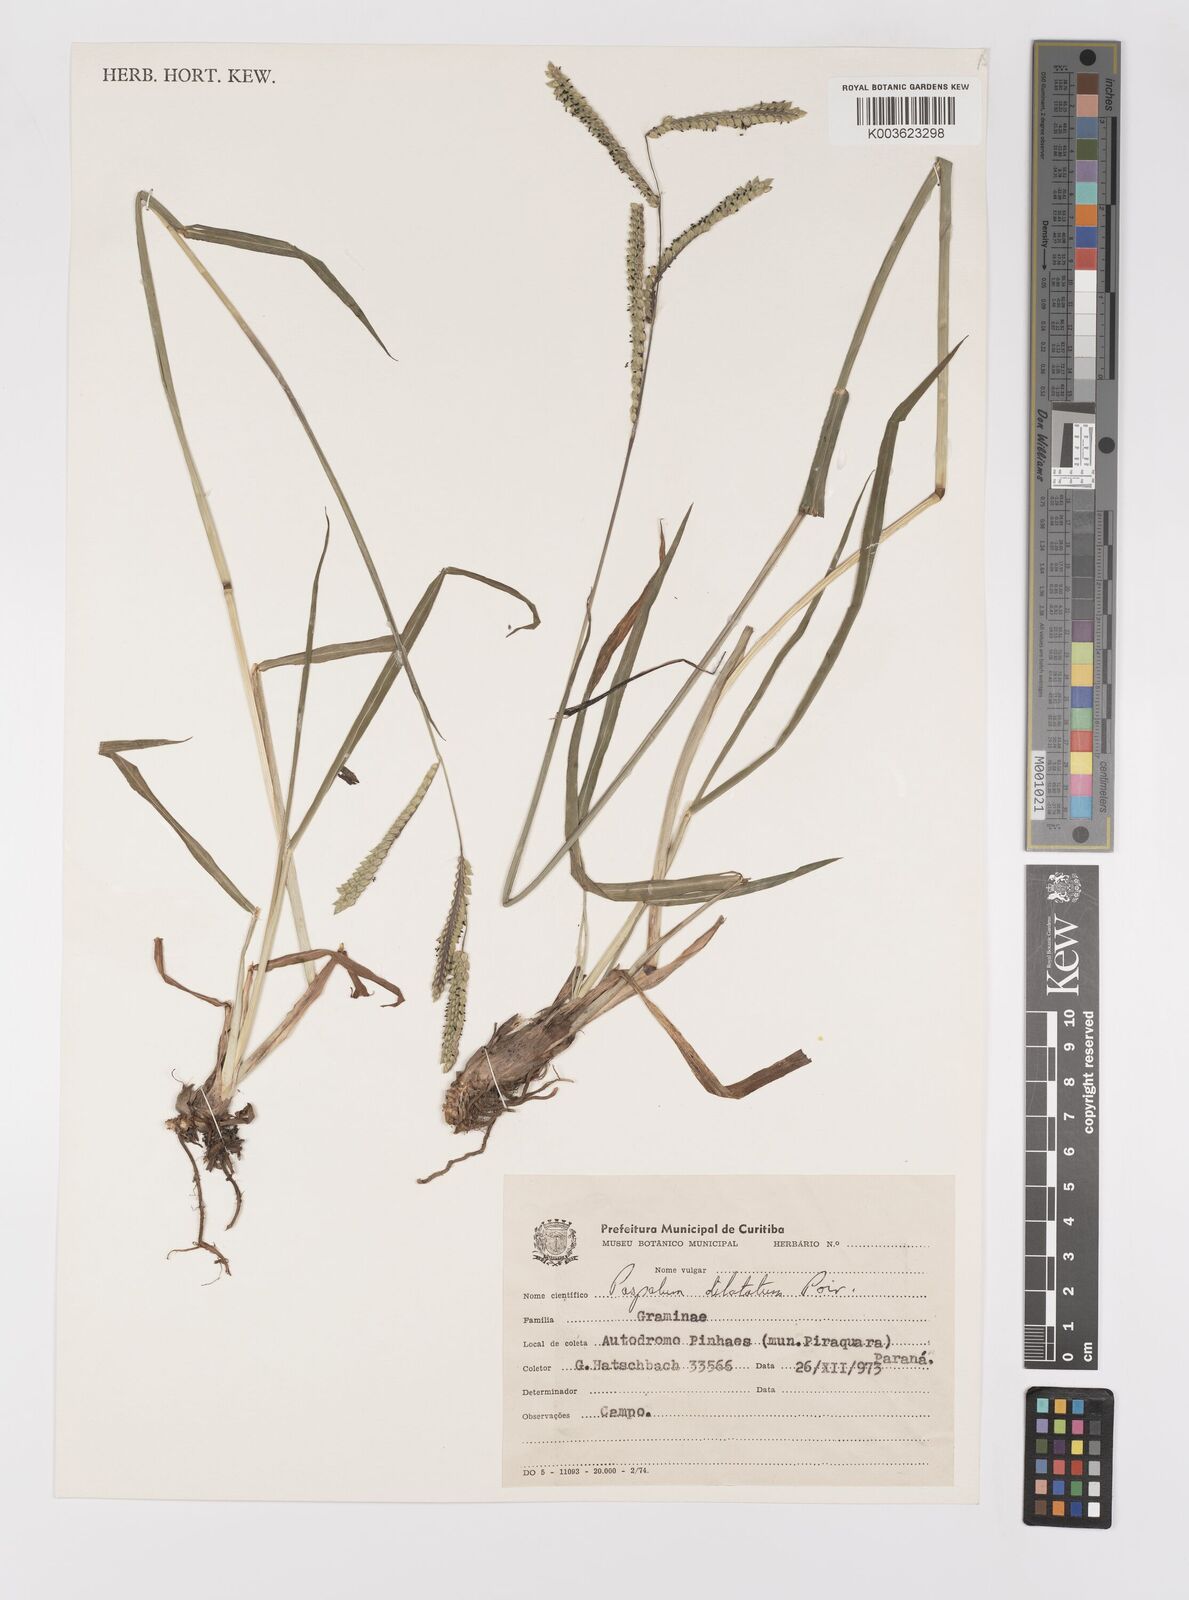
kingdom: Plantae
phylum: Tracheophyta
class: Liliopsida
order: Poales
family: Poaceae
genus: Paspalum
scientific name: Paspalum dilatatum
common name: Dallisgrass
